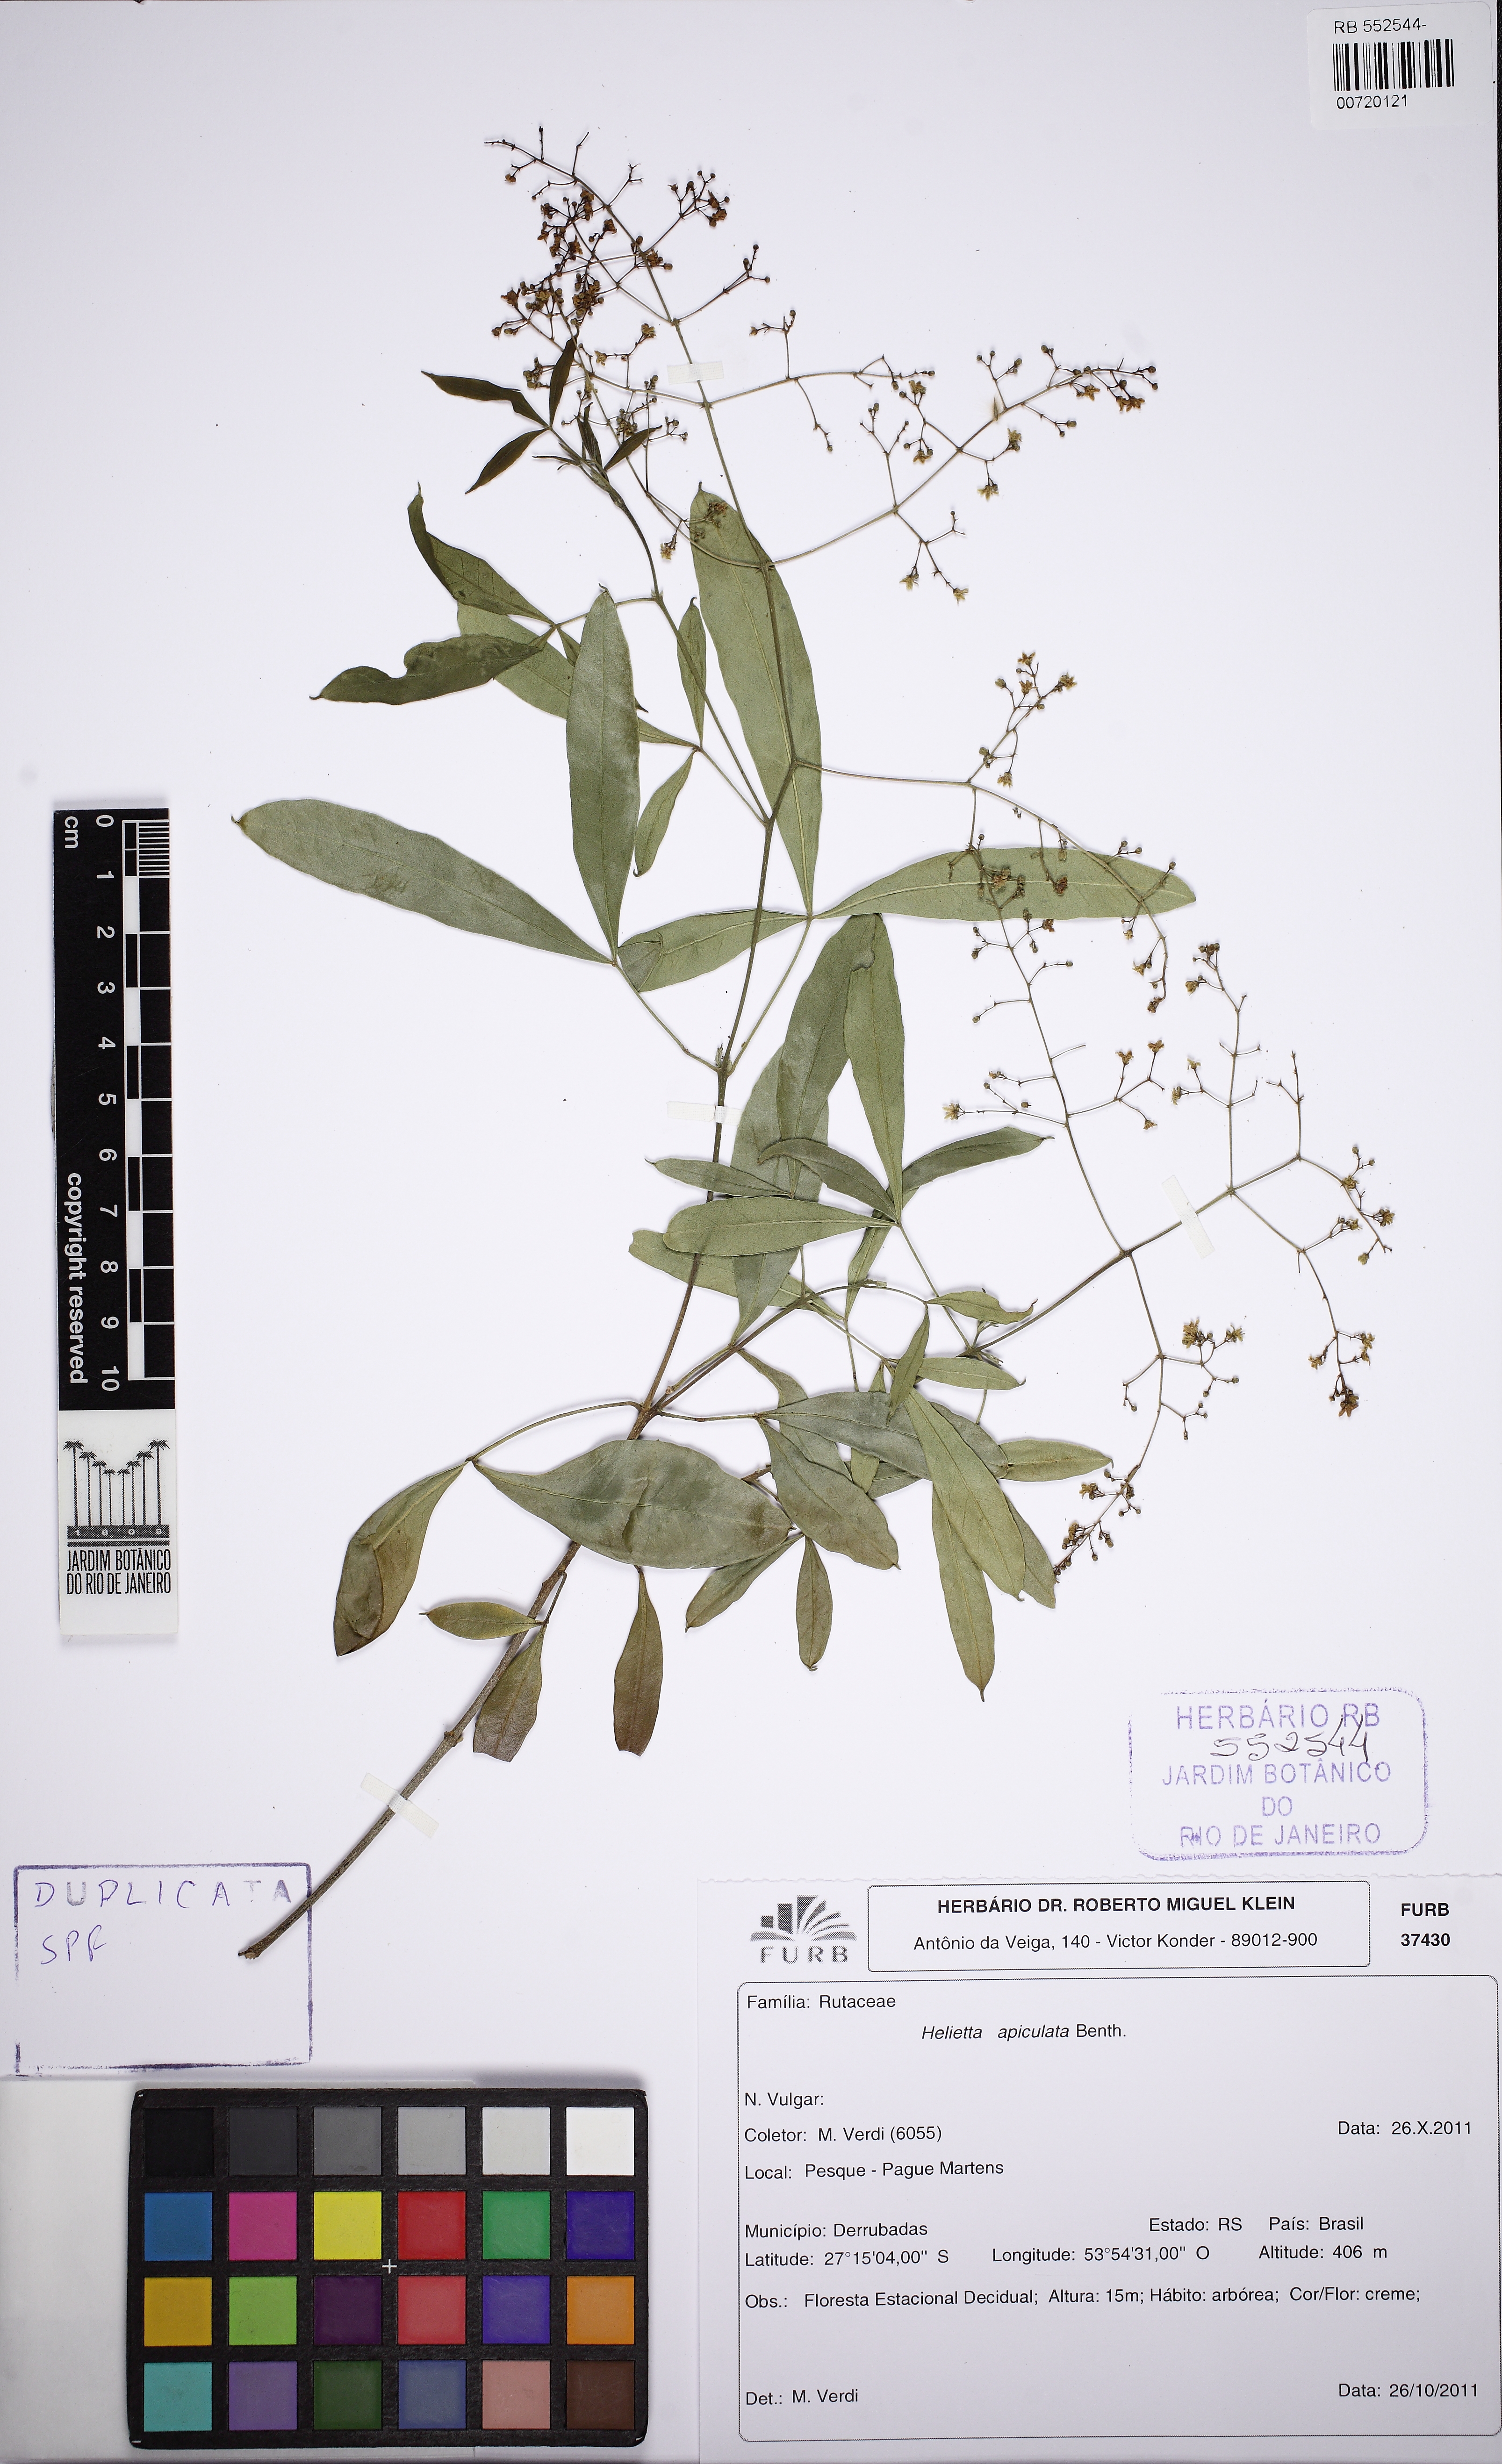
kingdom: Plantae
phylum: Tracheophyta
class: Magnoliopsida
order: Sapindales
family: Rutaceae
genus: Helietta
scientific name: Helietta apiculata
